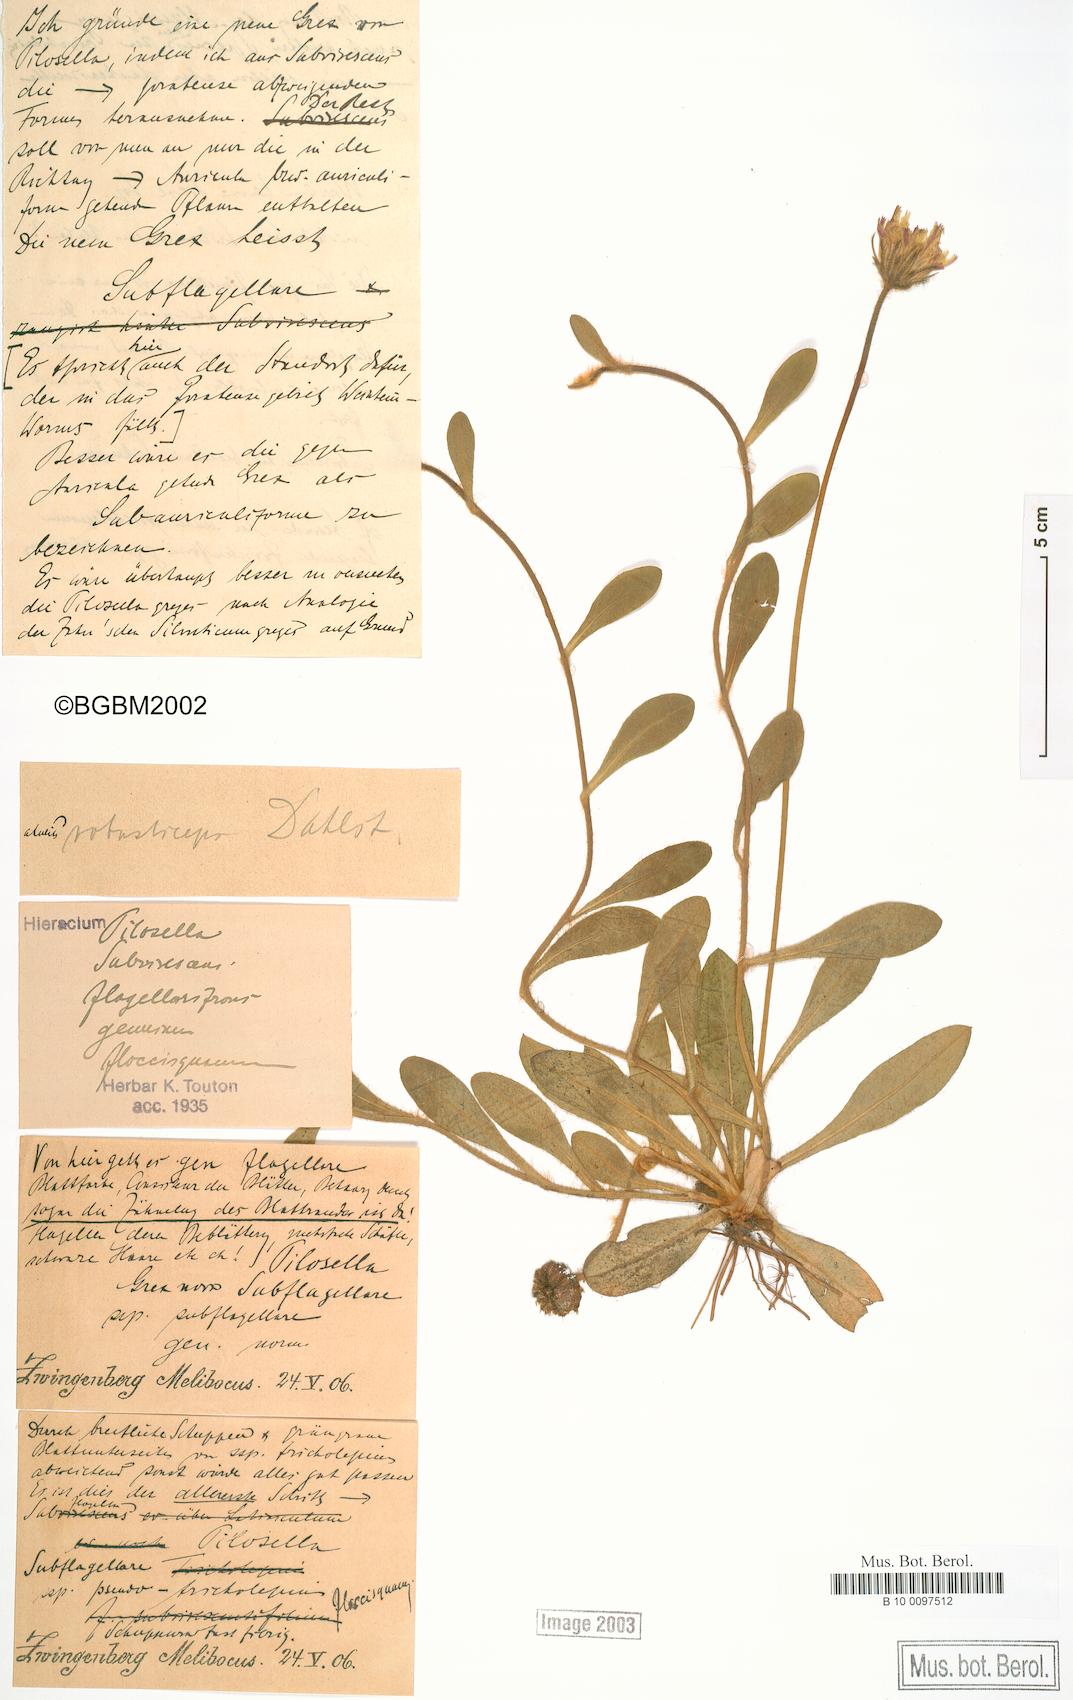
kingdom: Plantae
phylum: Tracheophyta
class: Magnoliopsida
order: Asterales
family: Asteraceae
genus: Pilosella
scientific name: Pilosella officinarum
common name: Mouse-ear hawkweed
